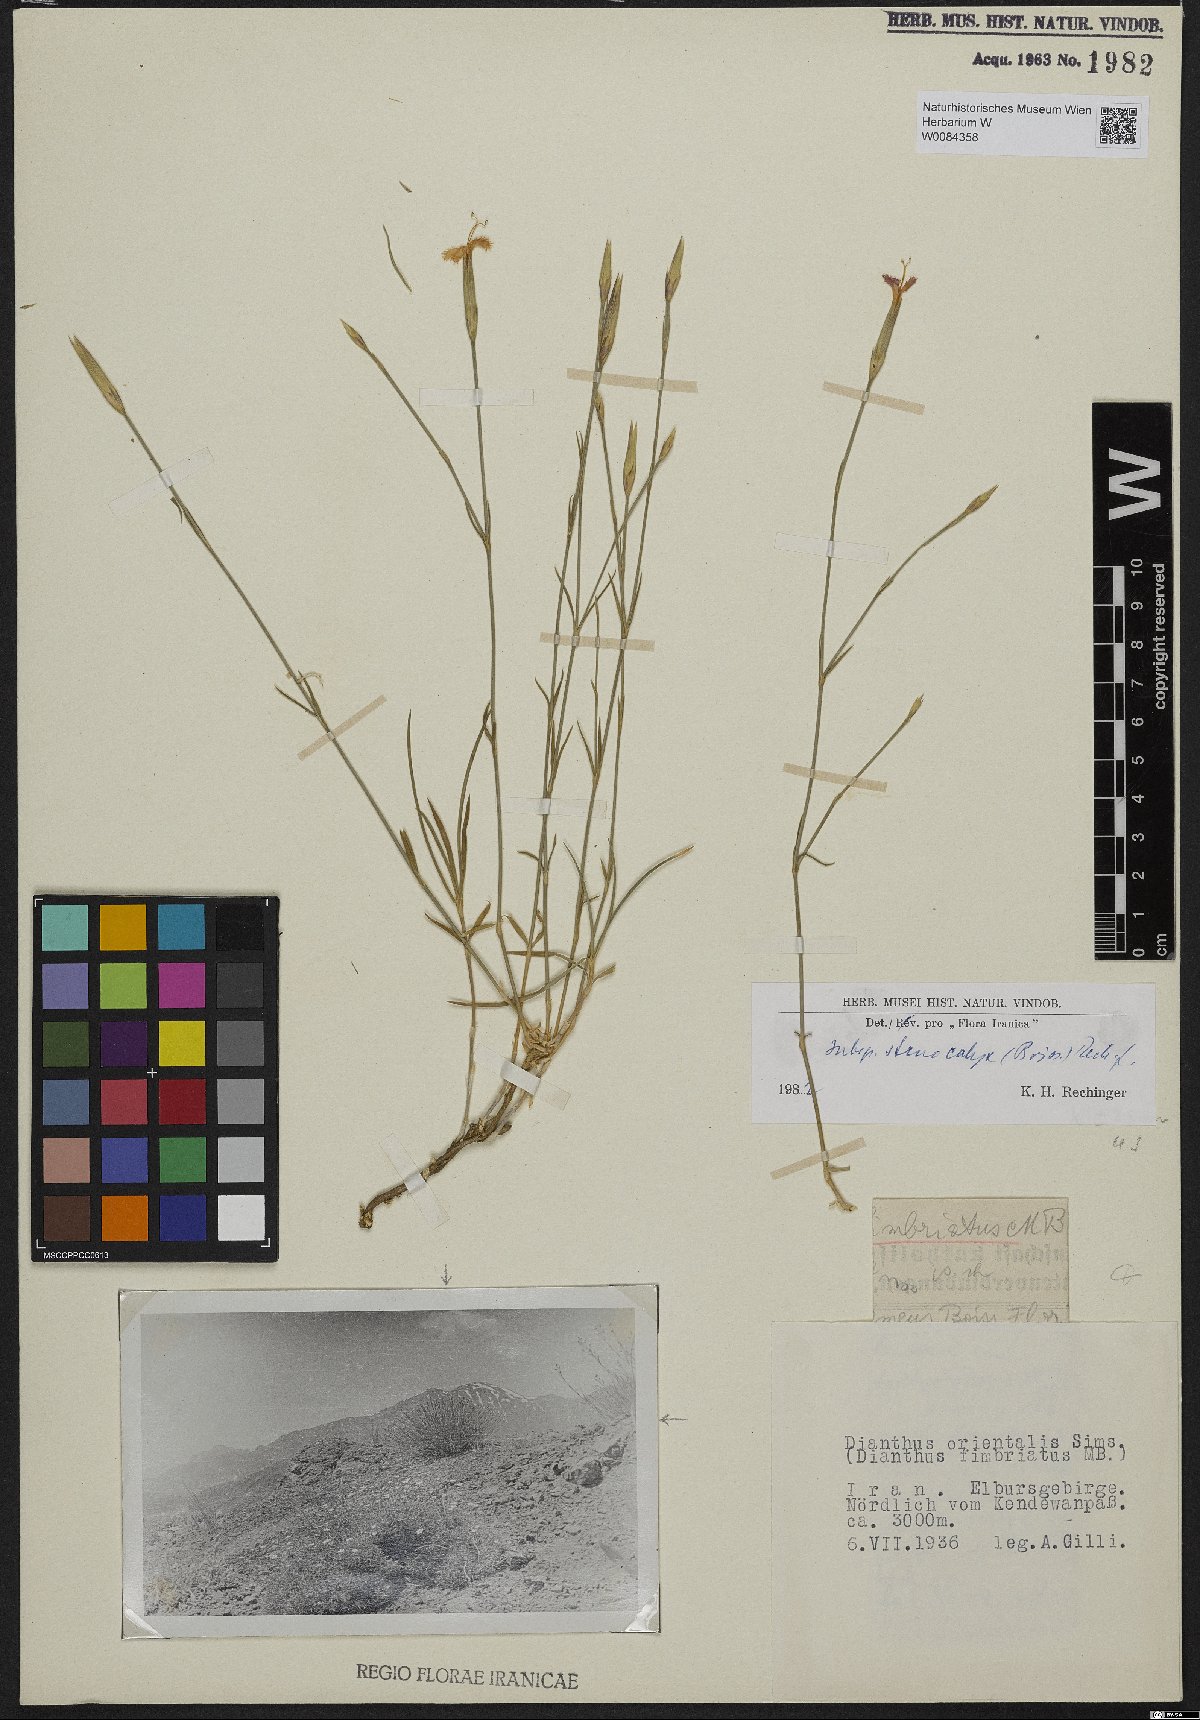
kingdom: Plantae
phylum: Tracheophyta
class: Magnoliopsida
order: Caryophyllales
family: Caryophyllaceae
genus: Dianthus
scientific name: Dianthus orientalis
